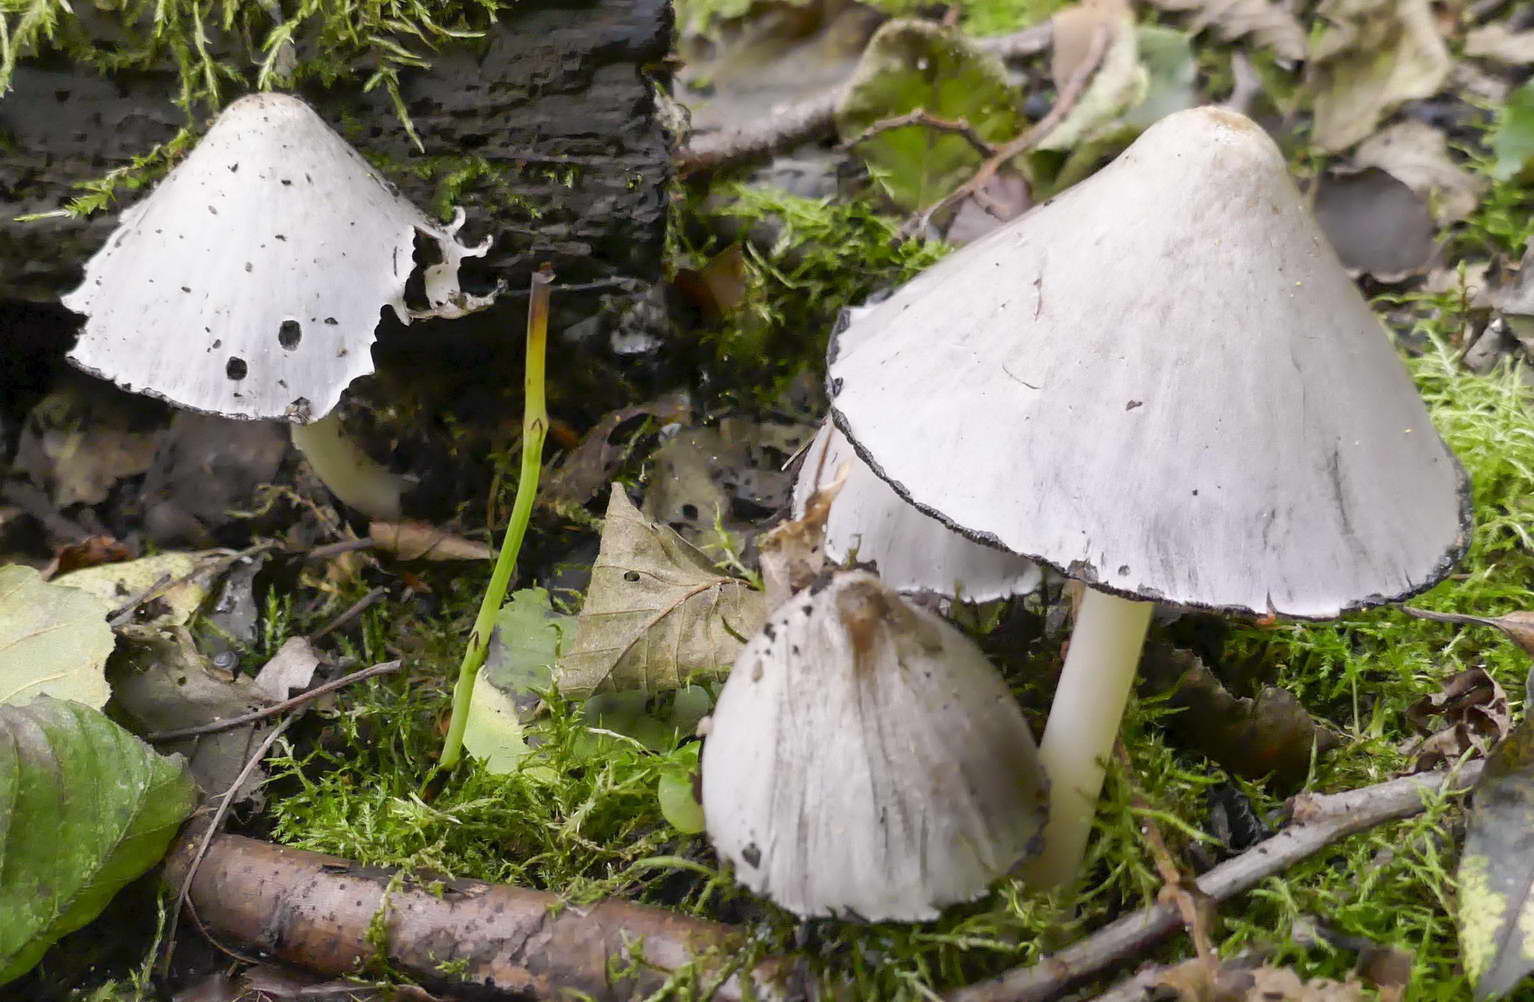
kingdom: Fungi
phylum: Basidiomycota
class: Agaricomycetes
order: Agaricales
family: Psathyrellaceae
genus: Coprinopsis
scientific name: Coprinopsis
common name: blækhat
